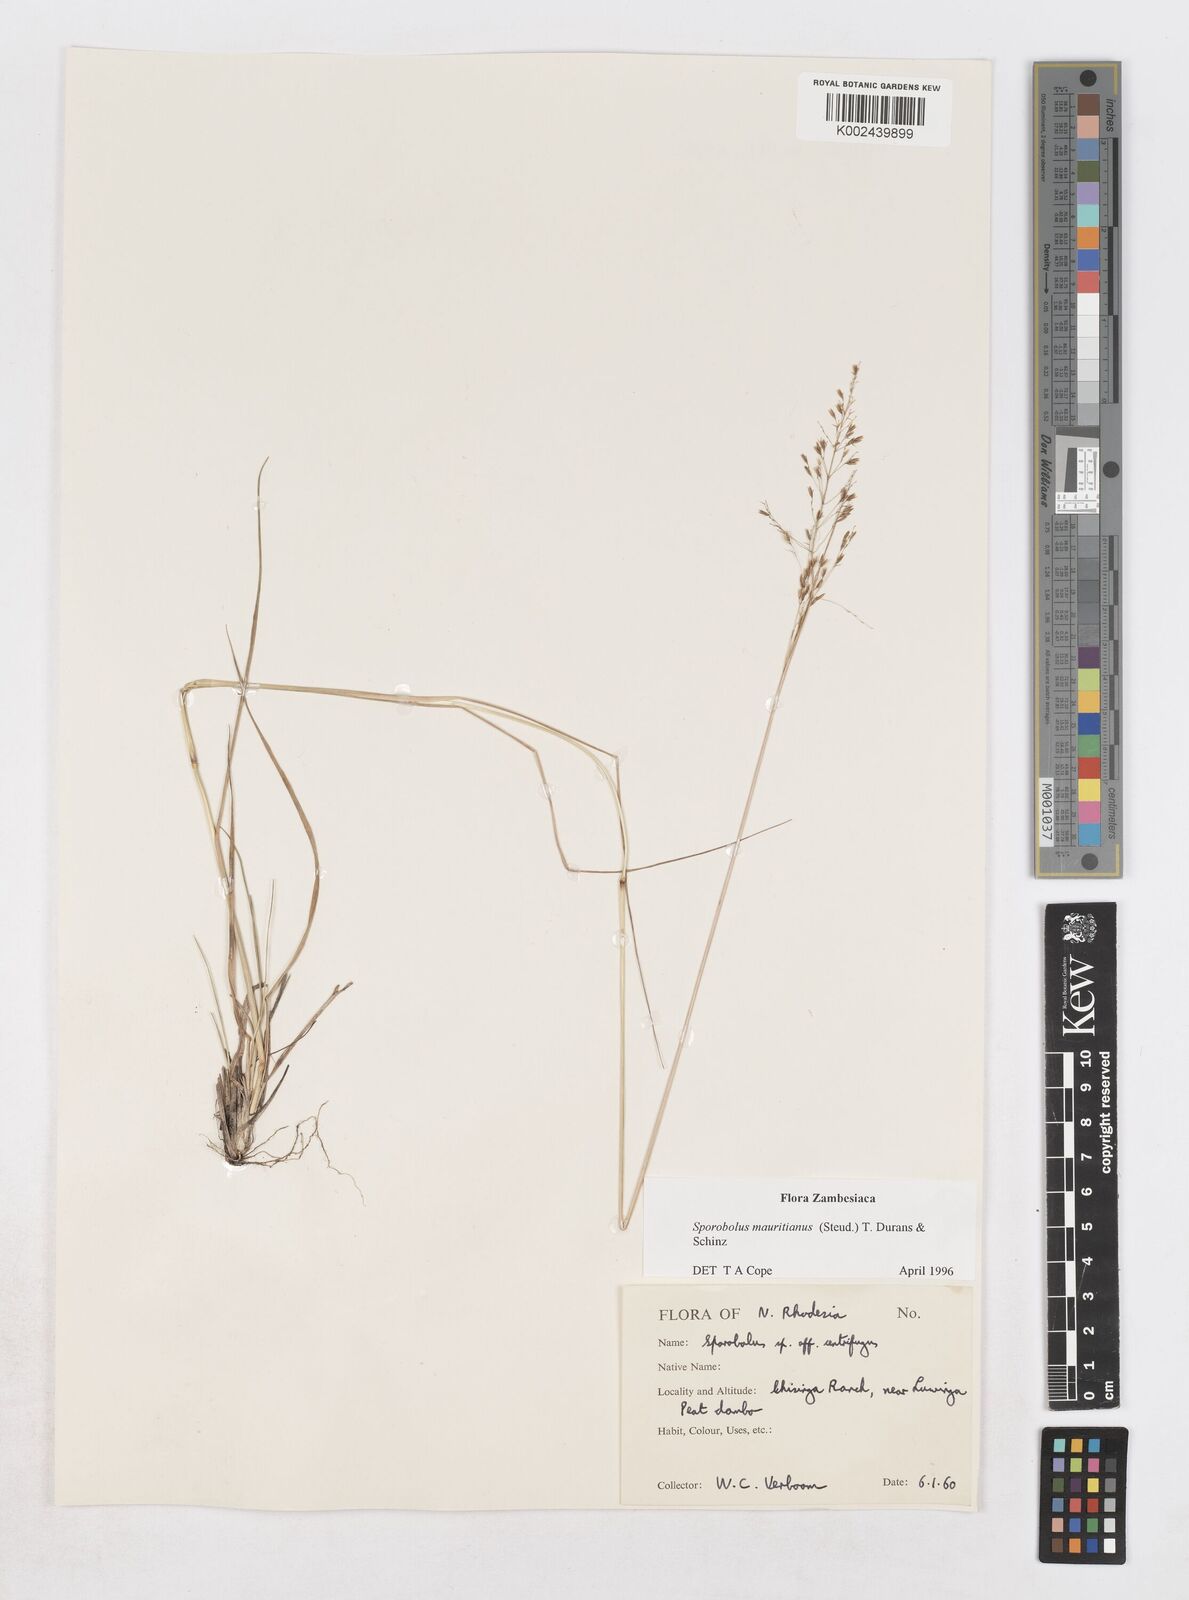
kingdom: Plantae
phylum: Tracheophyta
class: Liliopsida
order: Poales
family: Poaceae
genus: Sporobolus
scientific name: Sporobolus subulatus
